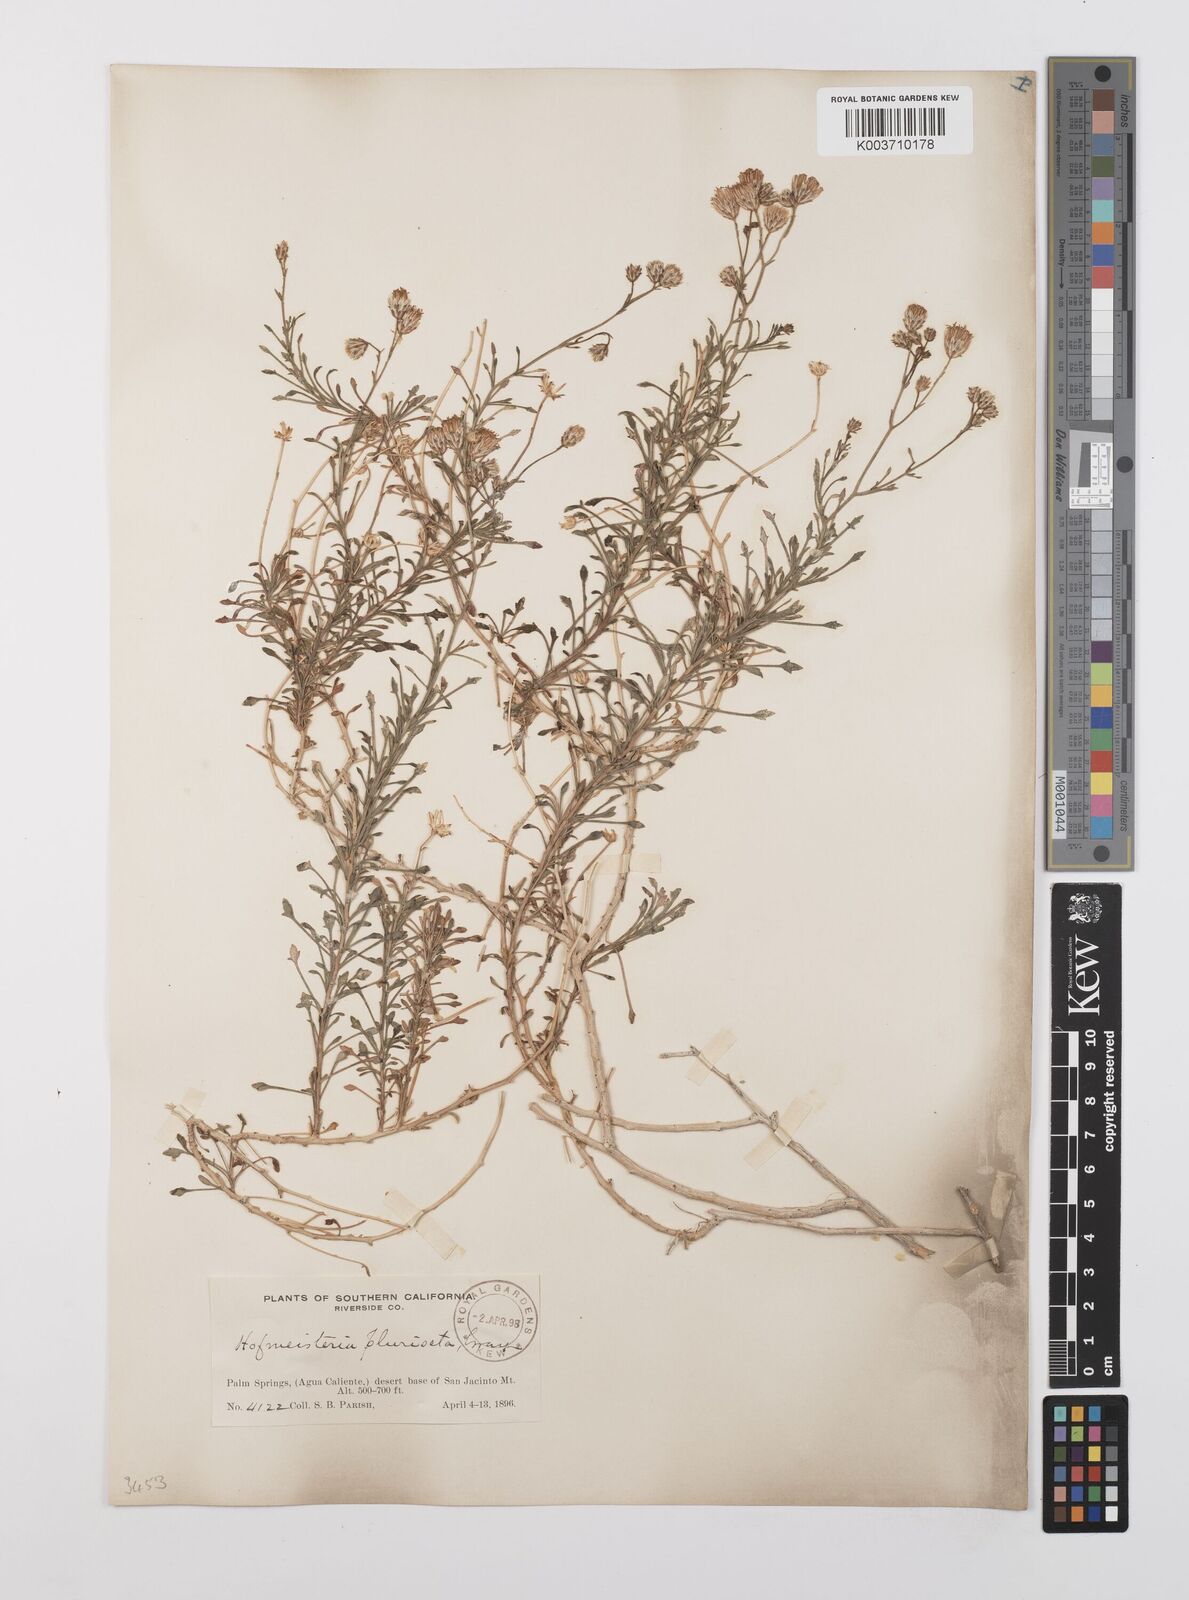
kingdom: Plantae
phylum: Tracheophyta
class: Magnoliopsida
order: Asterales
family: Asteraceae
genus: Pleurocoronis
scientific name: Pleurocoronis pluriseta
